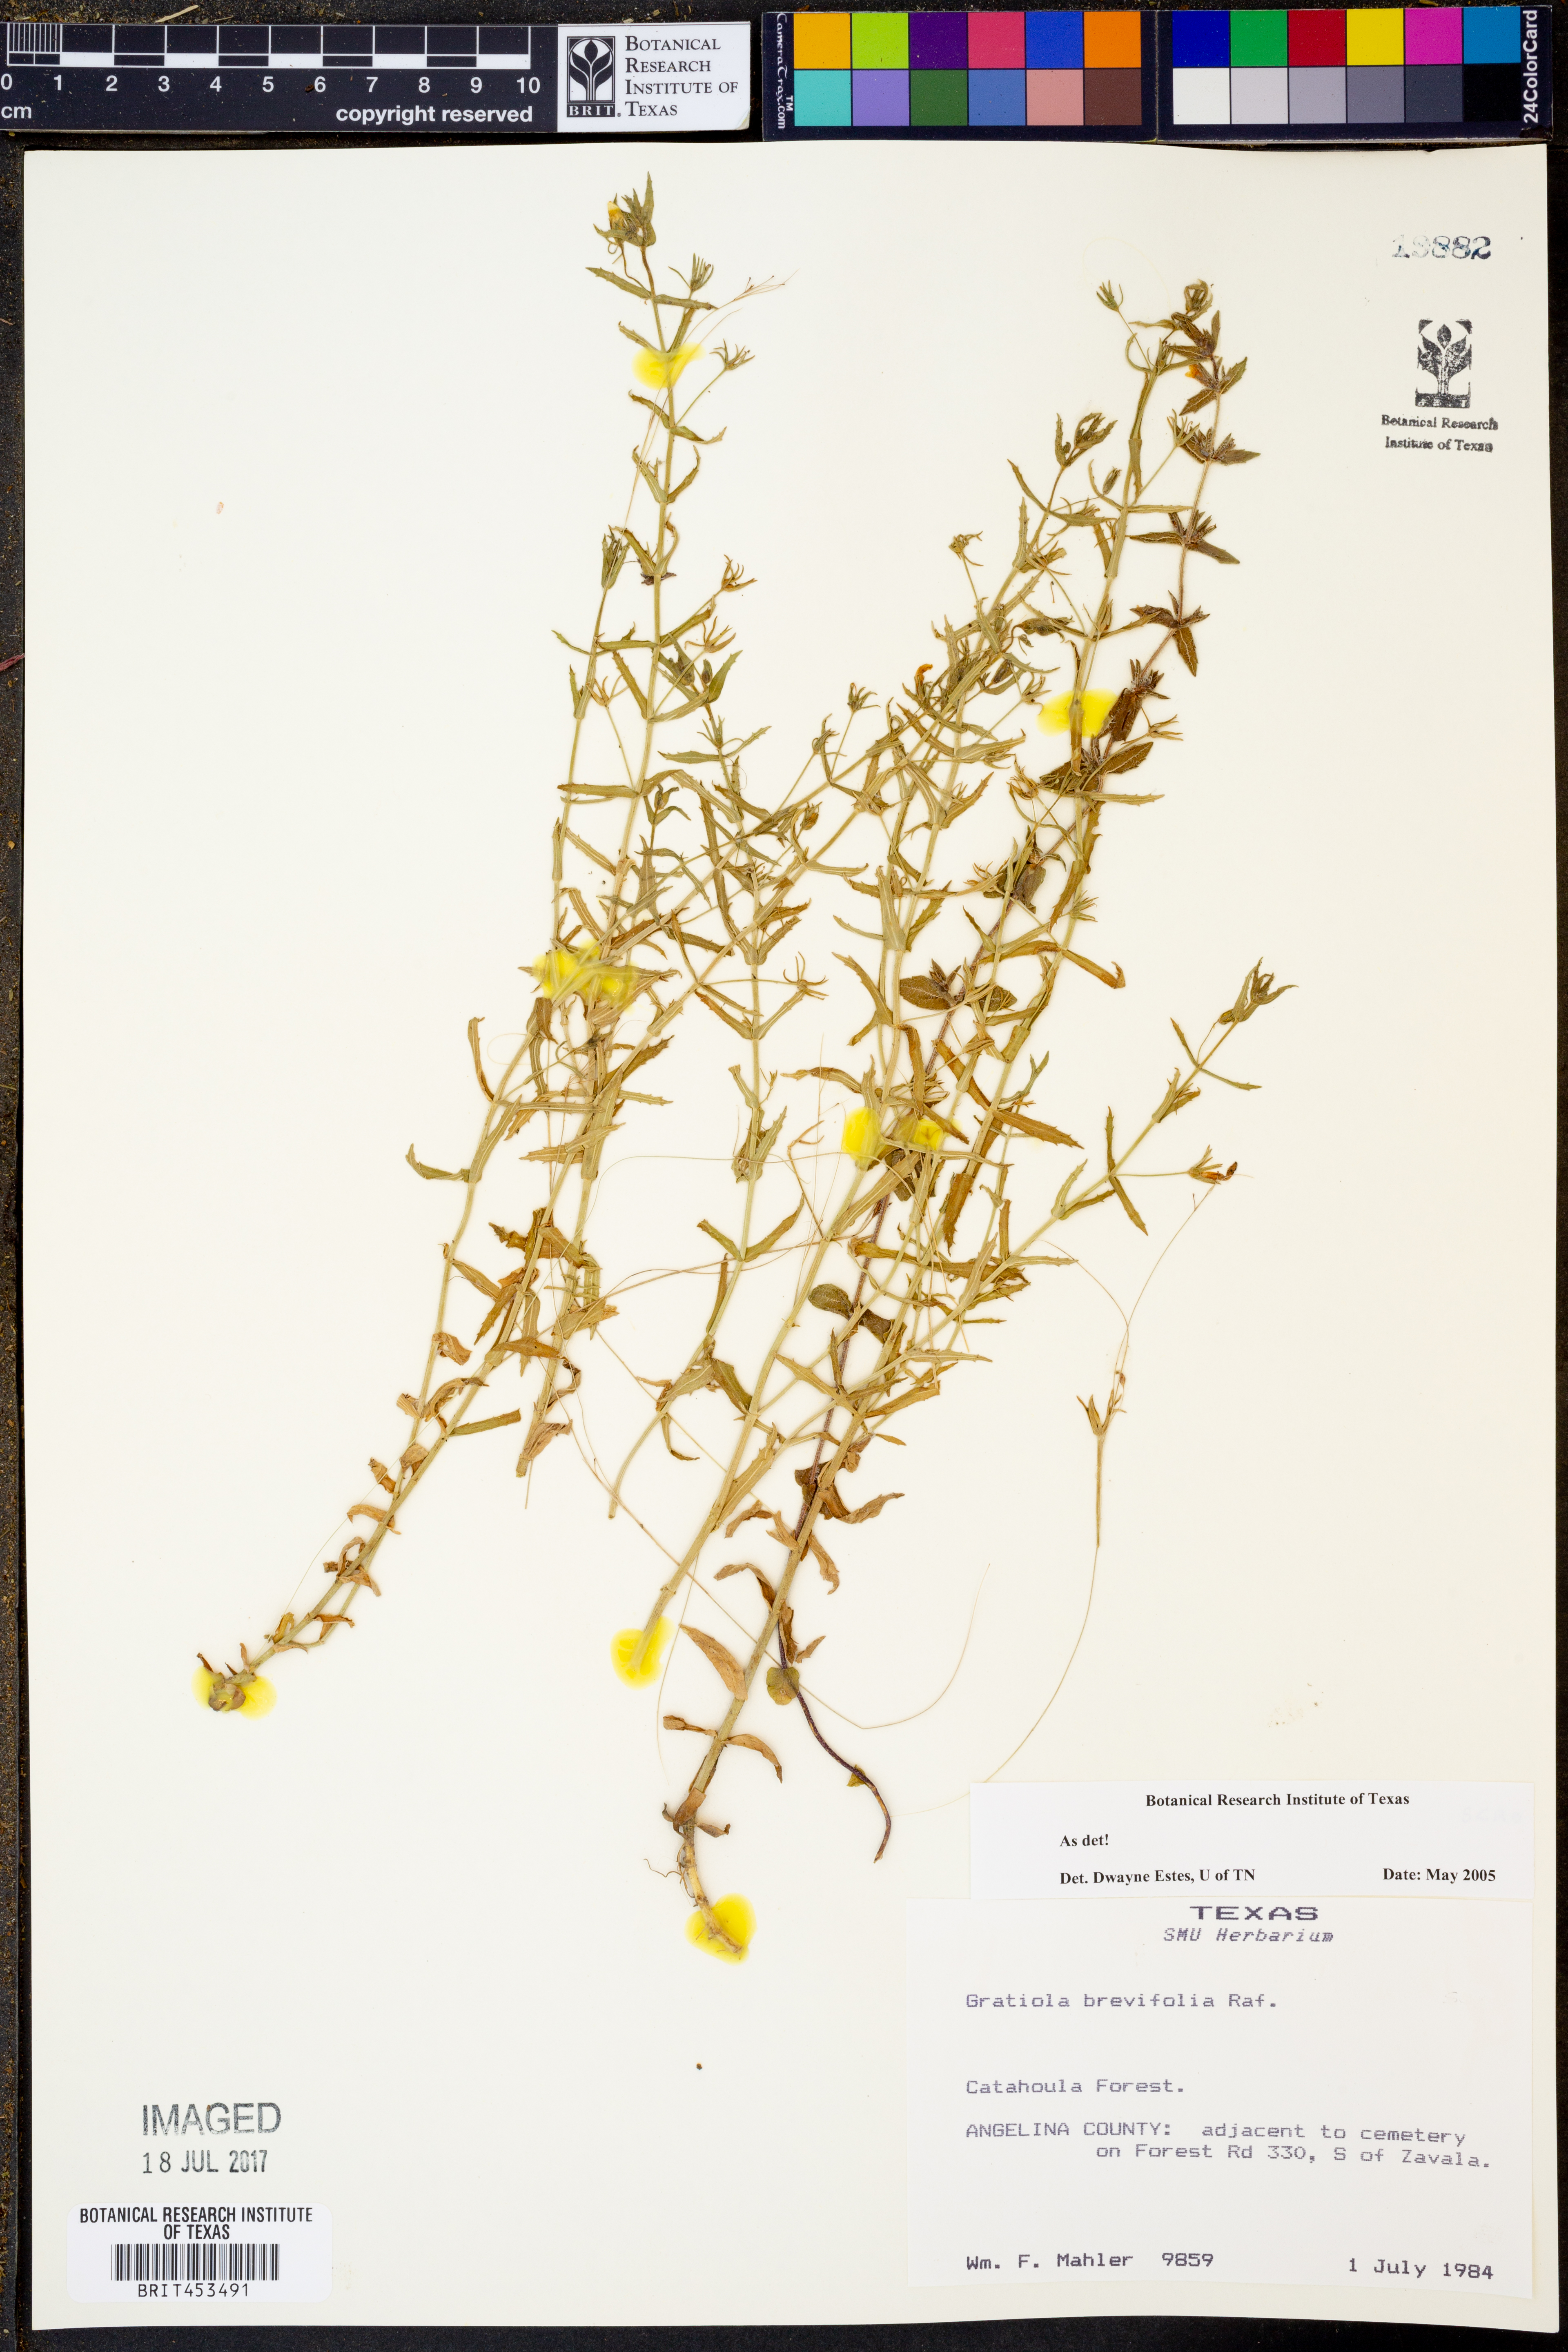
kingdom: Plantae
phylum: Tracheophyta
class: Magnoliopsida
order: Lamiales
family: Plantaginaceae
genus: Gratiola
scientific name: Gratiola brevifolia
